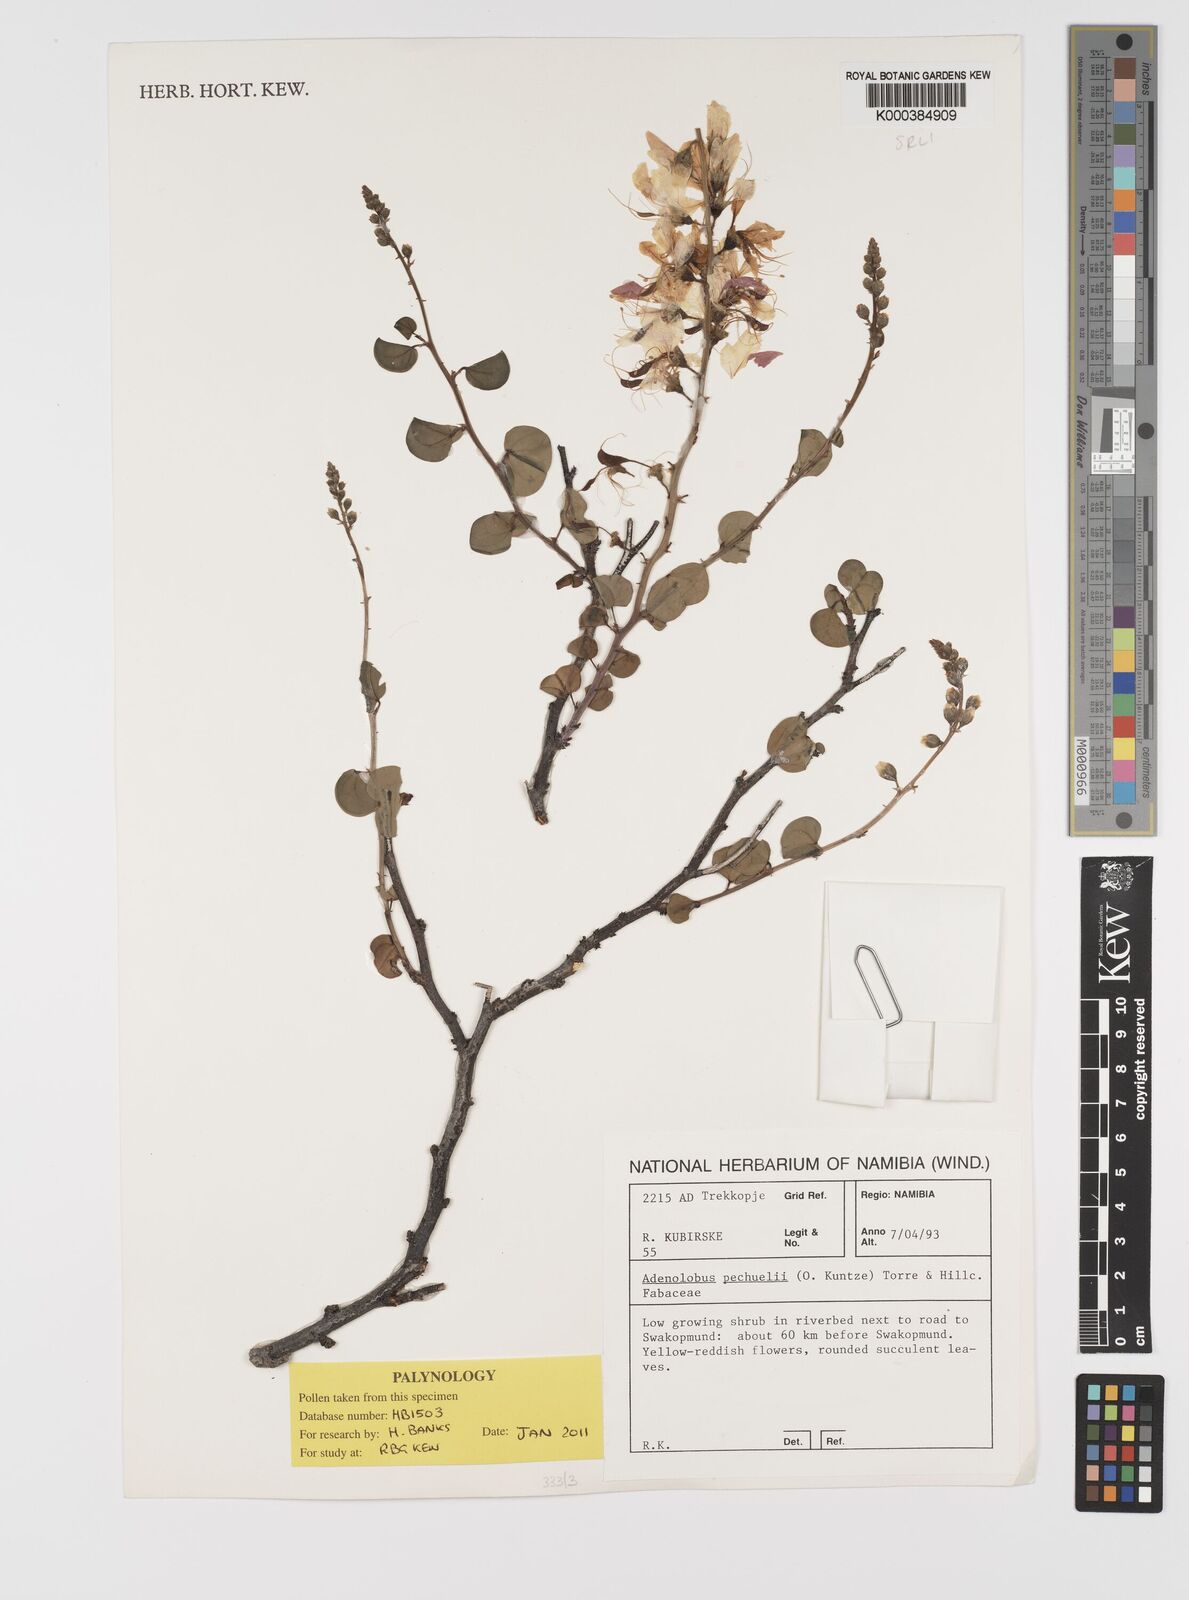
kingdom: Plantae
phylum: Tracheophyta
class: Magnoliopsida
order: Fabales
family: Fabaceae
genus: Adenolobus
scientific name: Adenolobus
